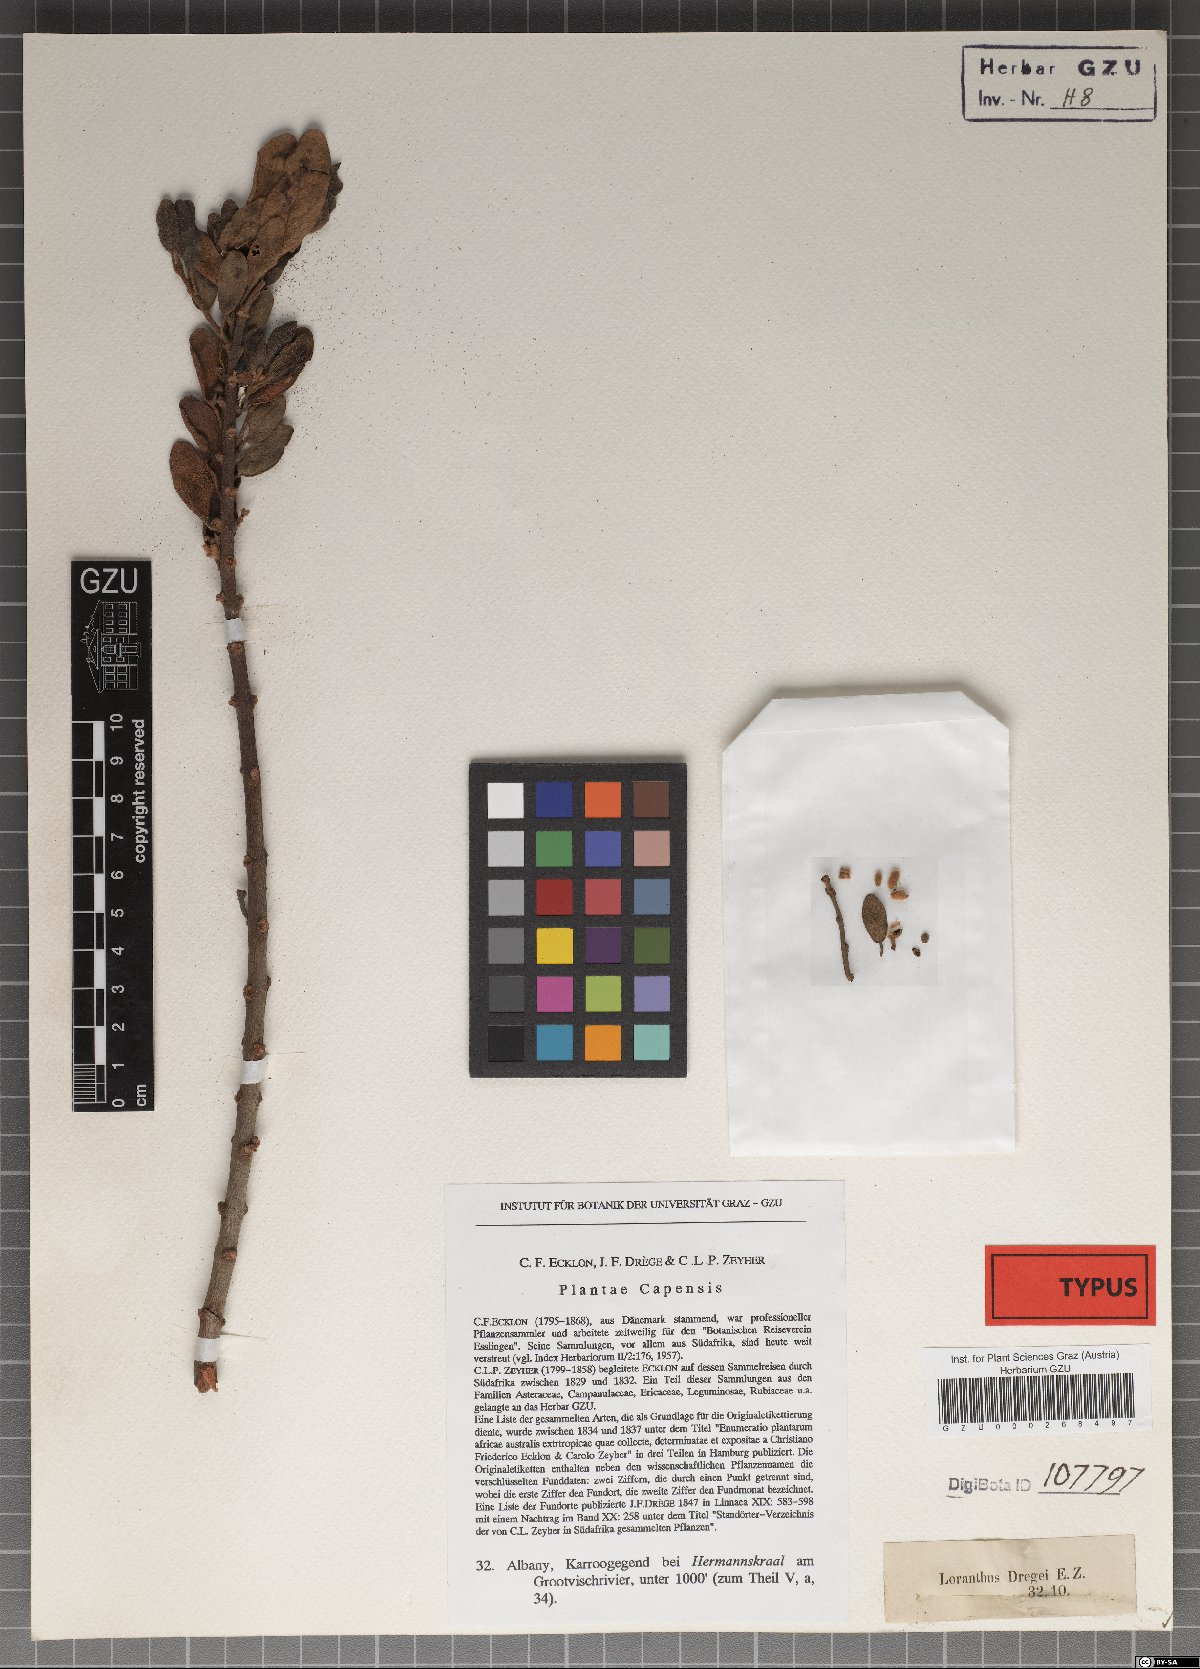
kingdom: Plantae
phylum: Tracheophyta
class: Magnoliopsida
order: Santalales
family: Loranthaceae
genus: Erianthemum
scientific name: Erianthemum dregei
